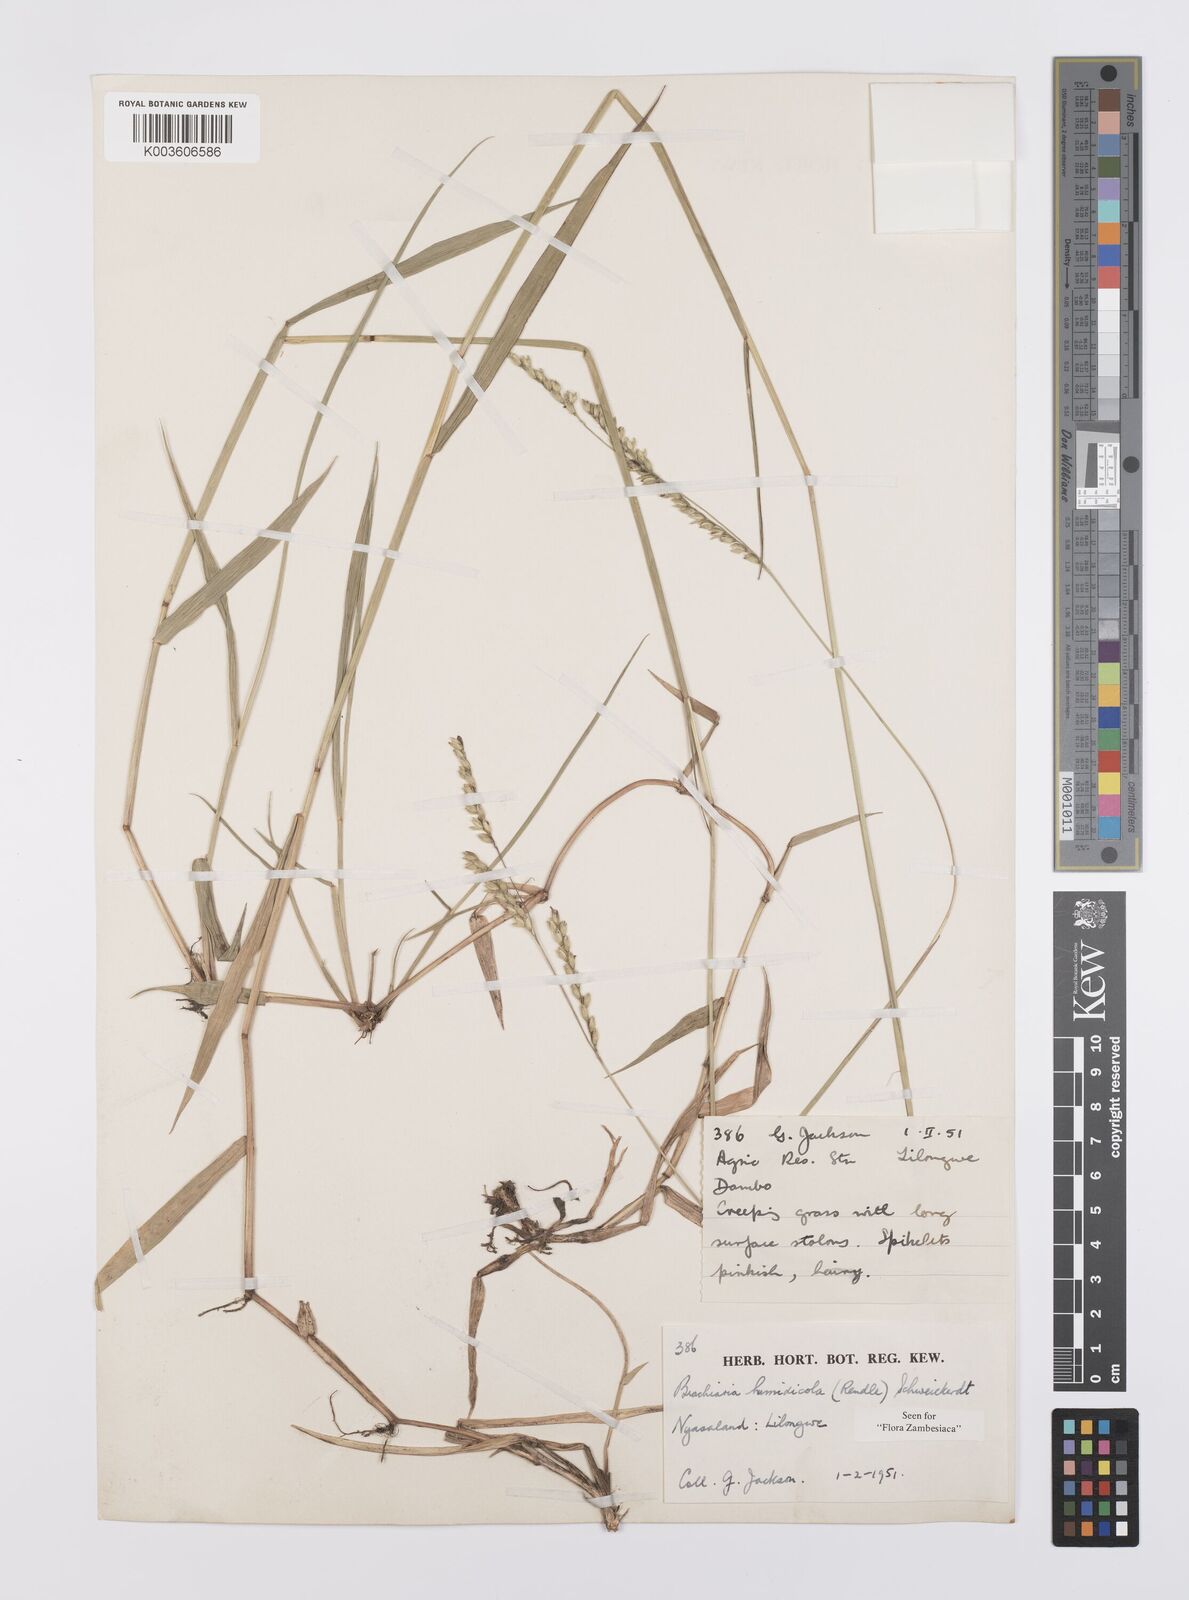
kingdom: Plantae
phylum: Tracheophyta
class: Liliopsida
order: Poales
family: Poaceae
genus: Urochloa
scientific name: Urochloa dictyoneura
